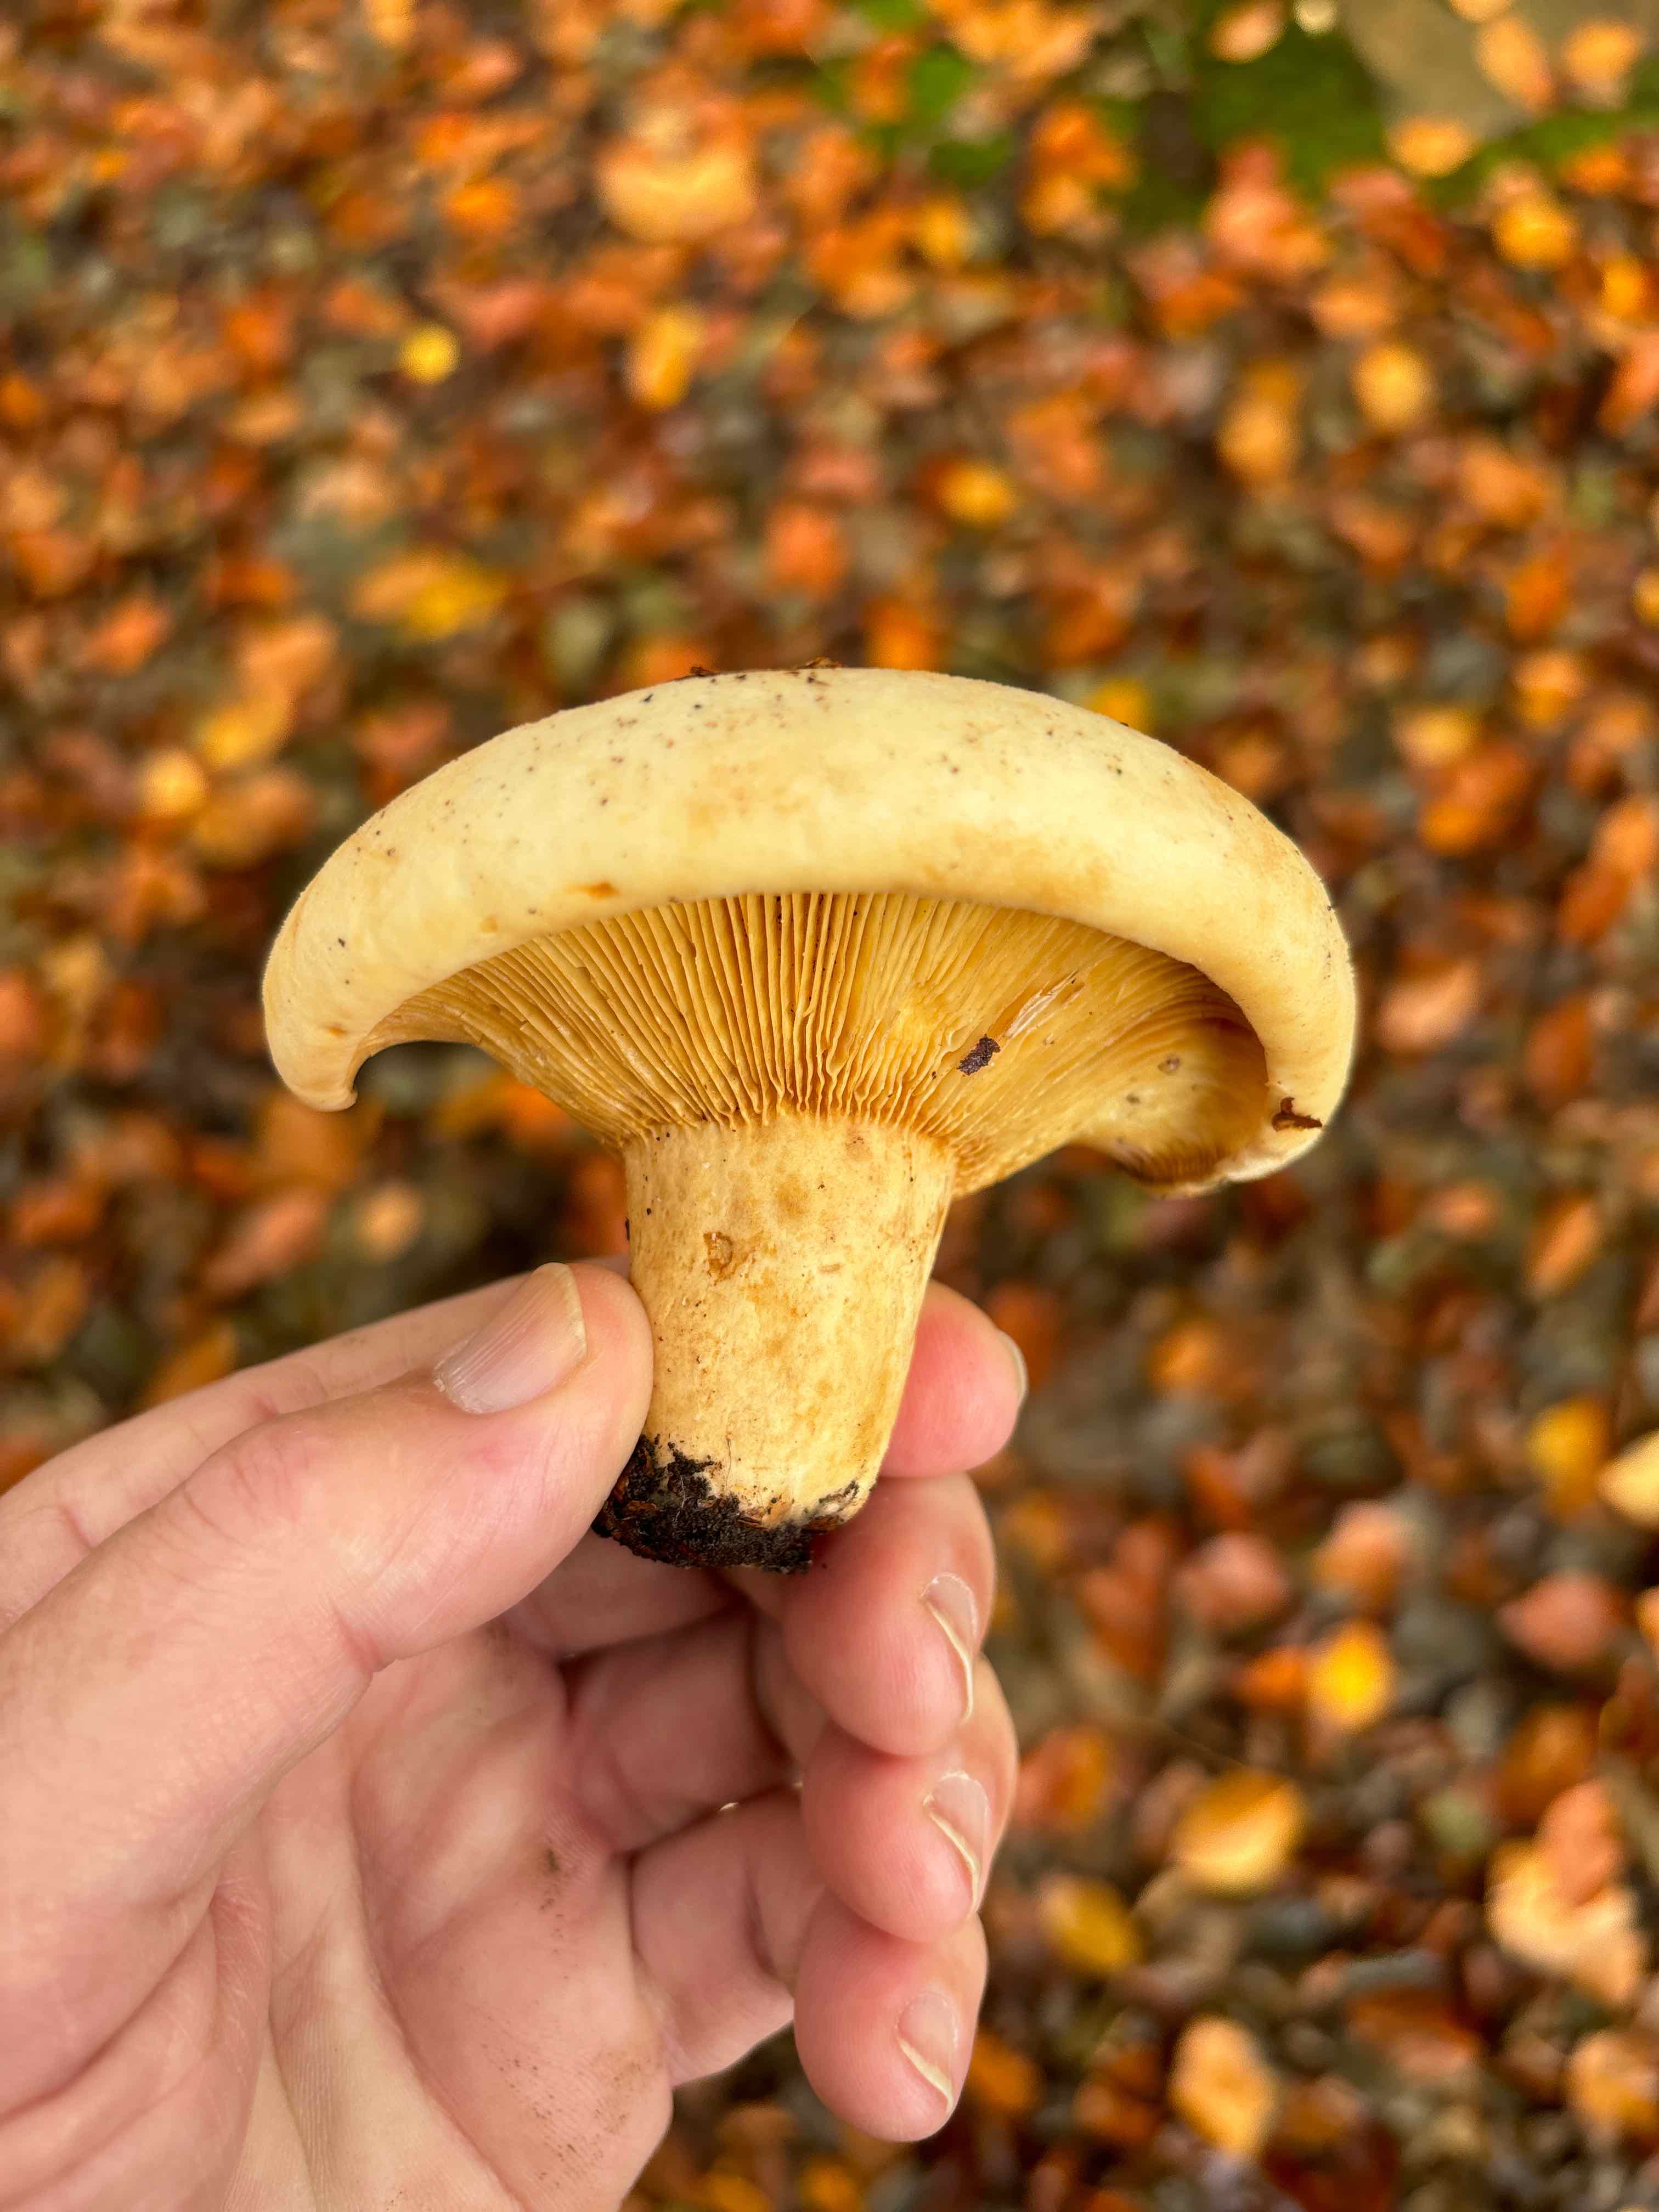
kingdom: Fungi
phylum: Basidiomycota
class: Agaricomycetes
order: Russulales
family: Russulaceae
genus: Lactifluus
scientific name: Lactifluus
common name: mælkehat
